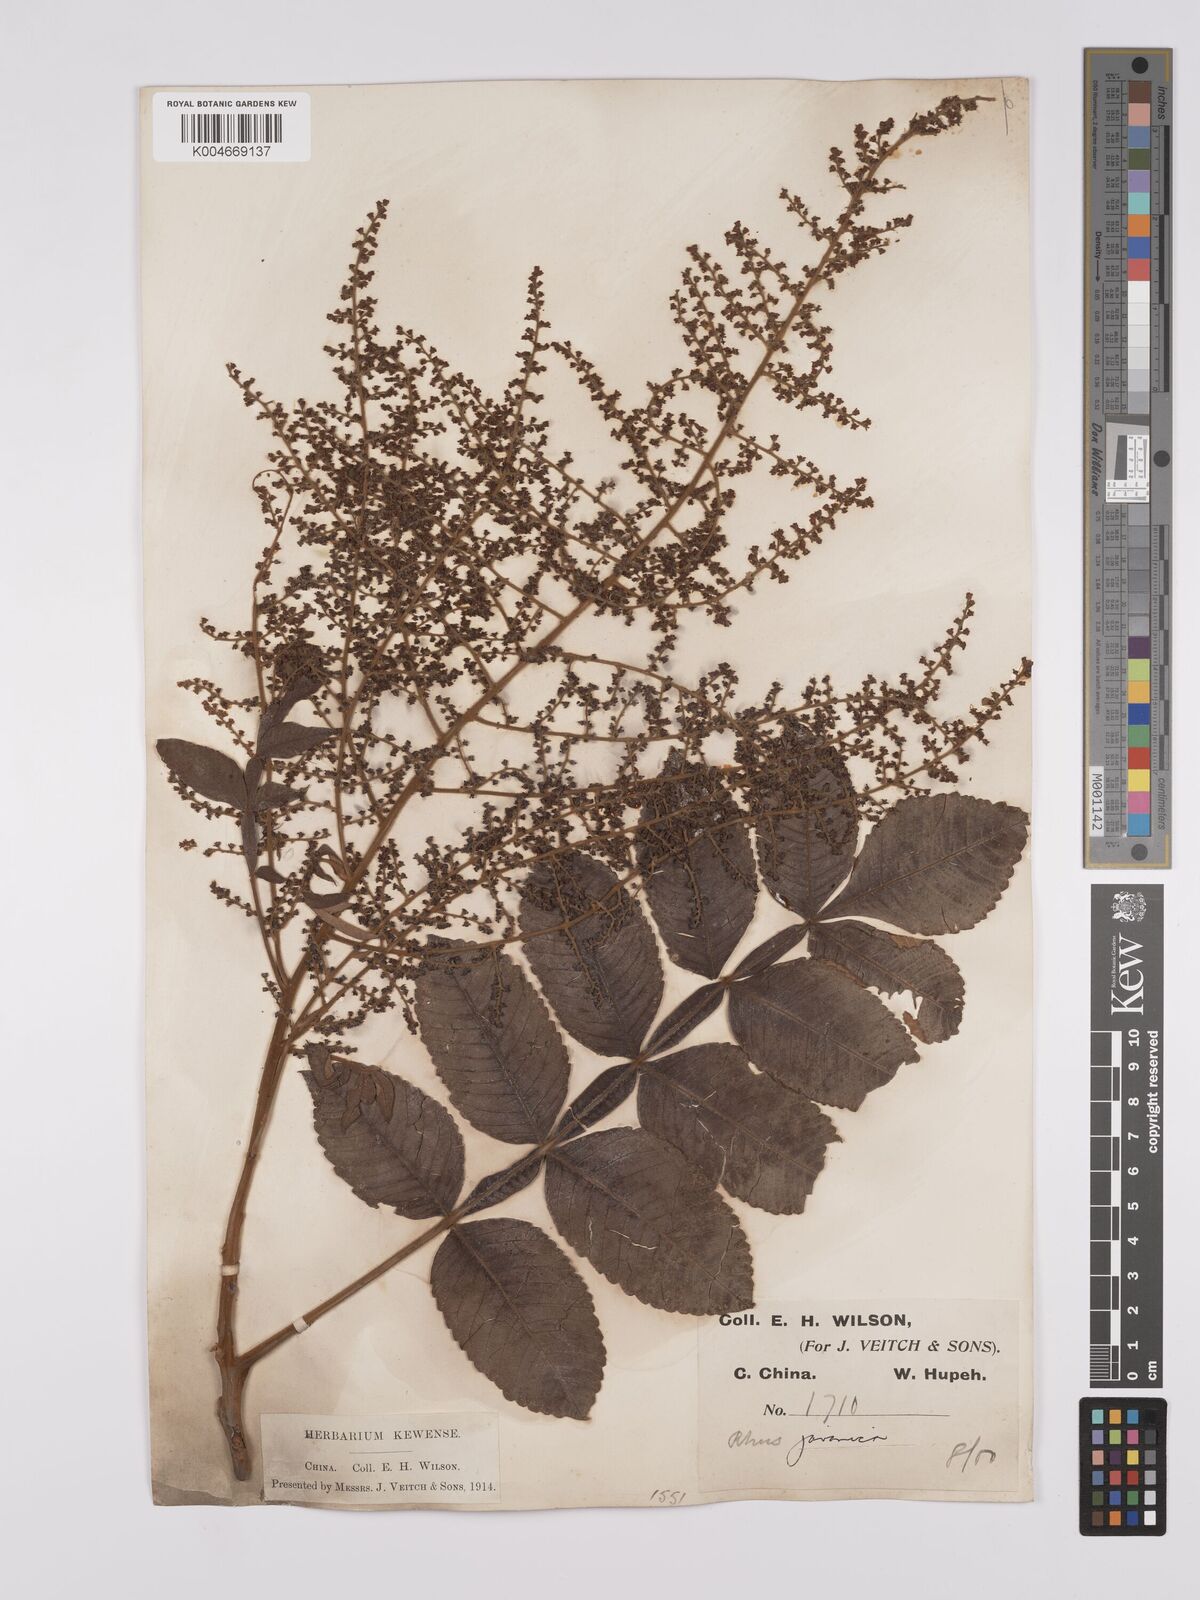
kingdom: Plantae
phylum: Tracheophyta
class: Magnoliopsida
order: Sapindales
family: Simaroubaceae
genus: Brucea
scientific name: Brucea javanica
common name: Macassar kernels
